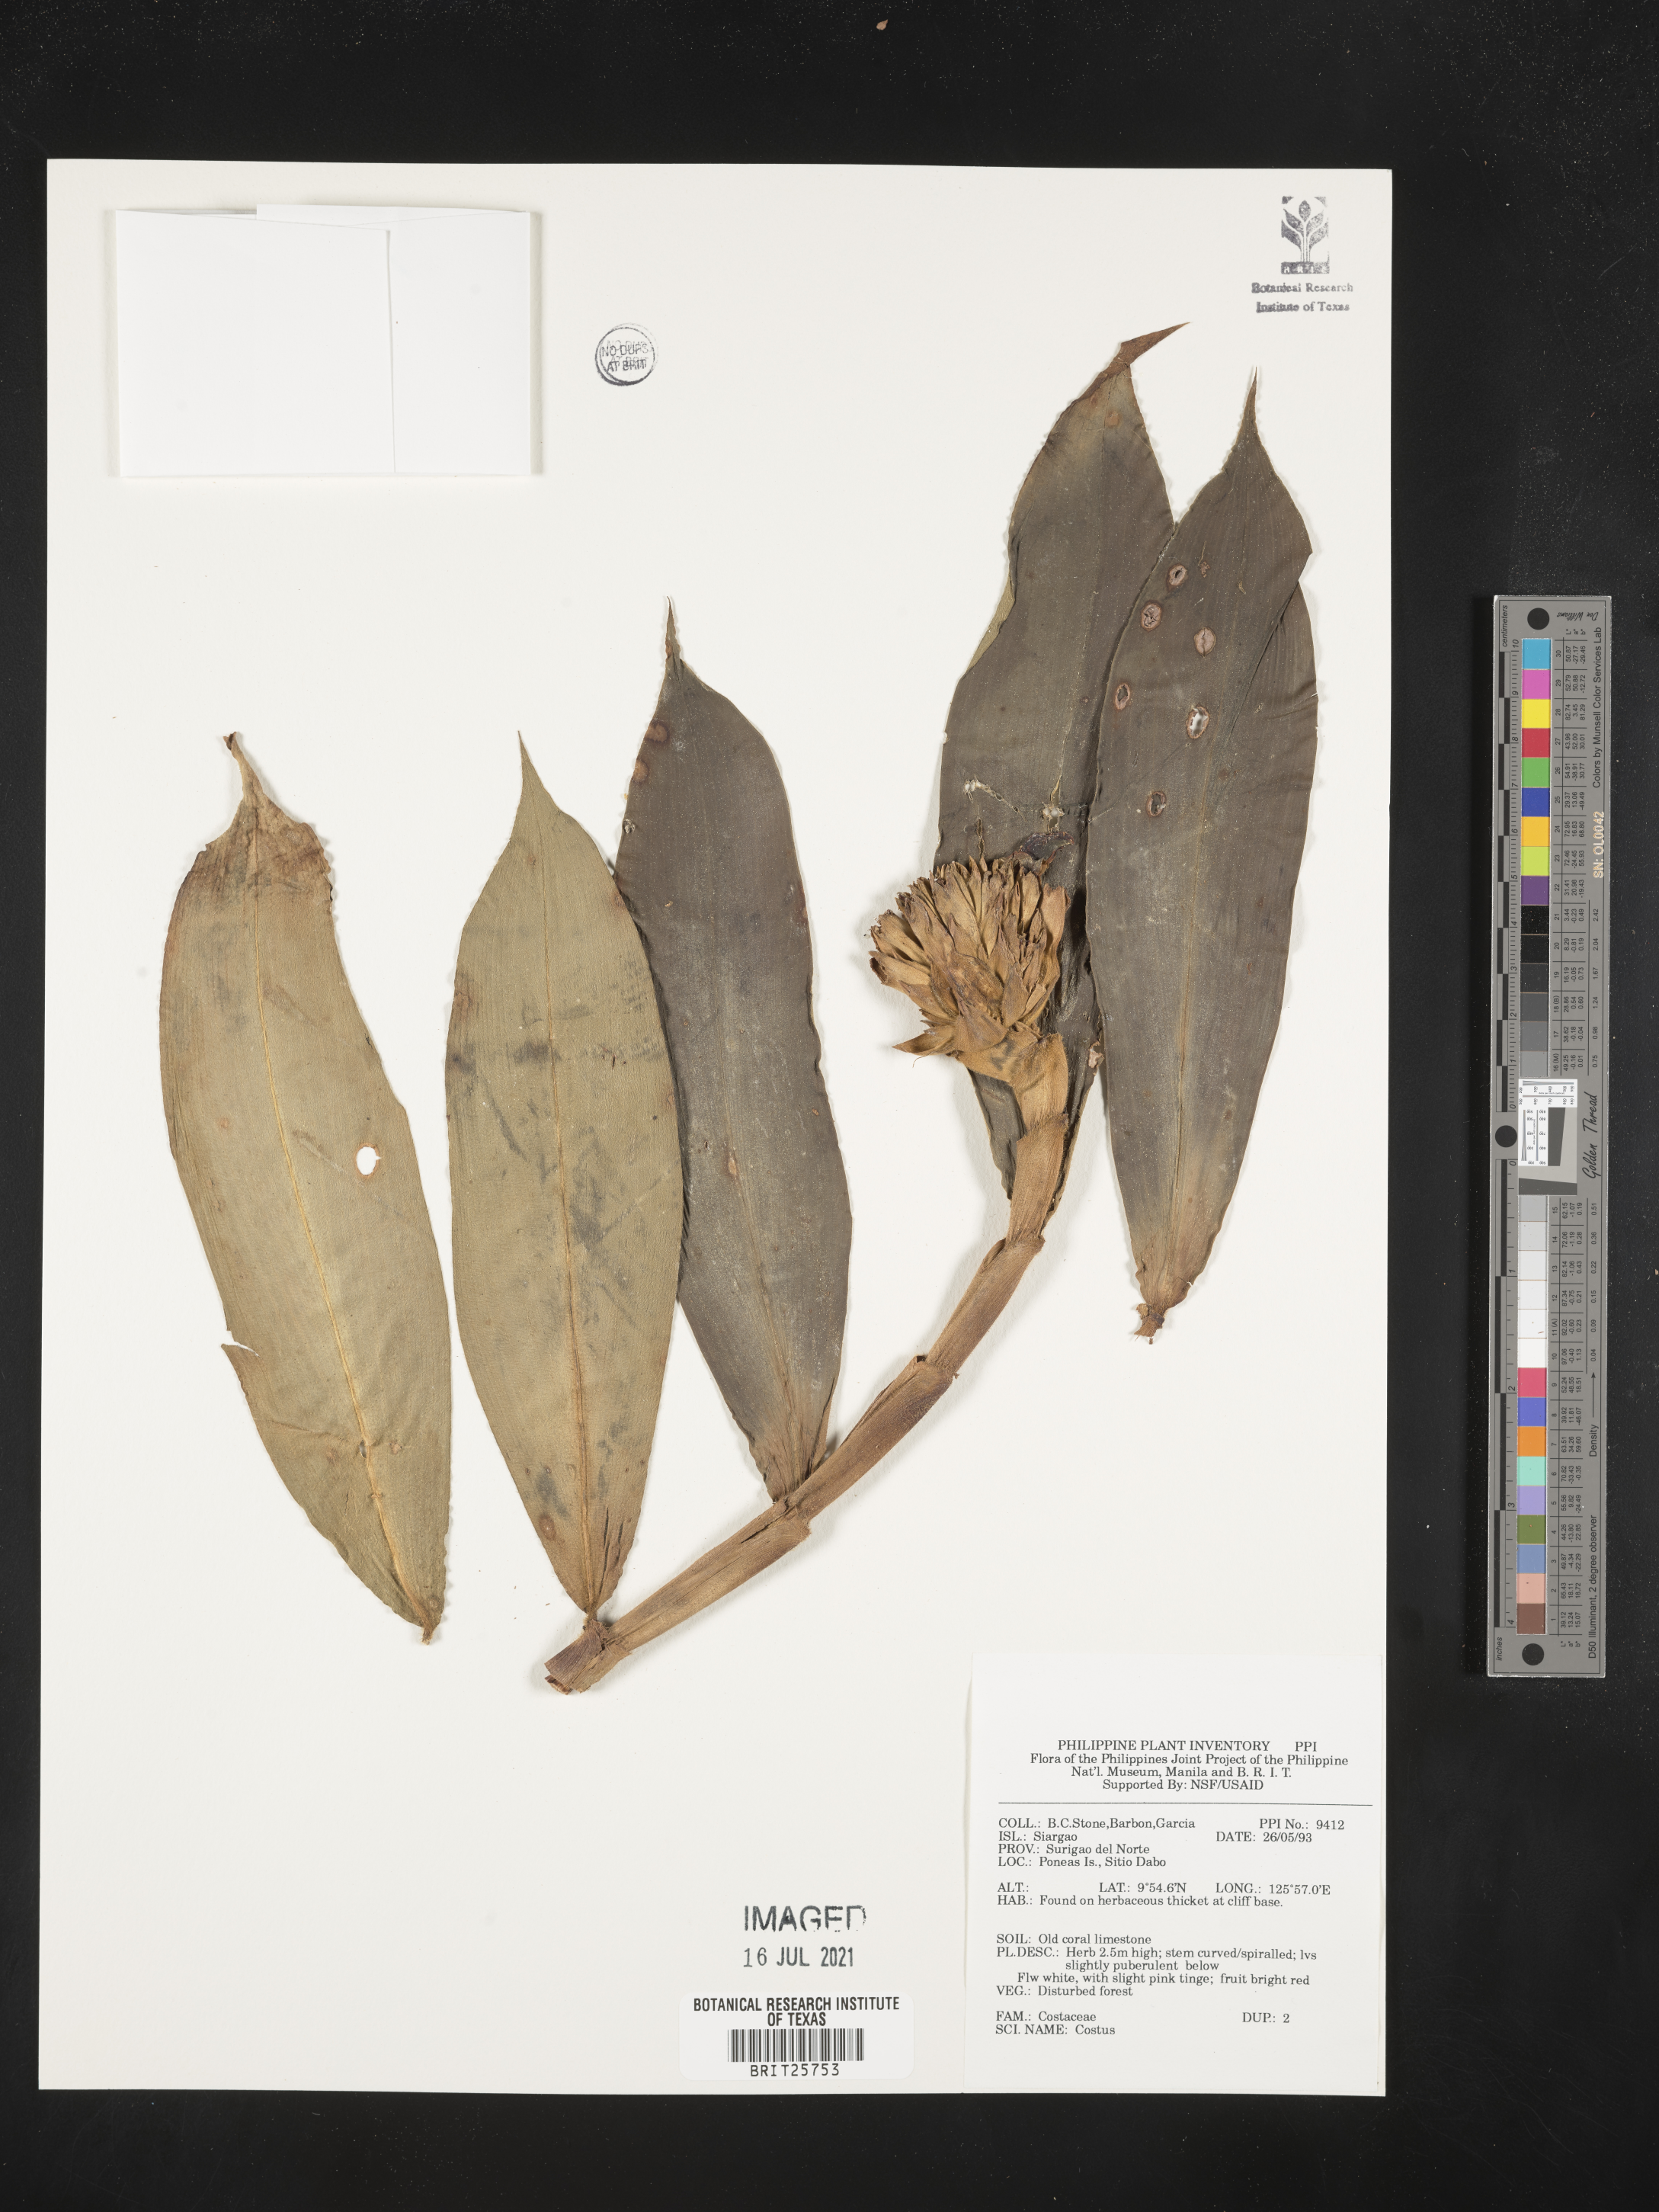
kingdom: Plantae
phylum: Tracheophyta
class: Liliopsida
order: Zingiberales
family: Costaceae
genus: Costus
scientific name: Costus
